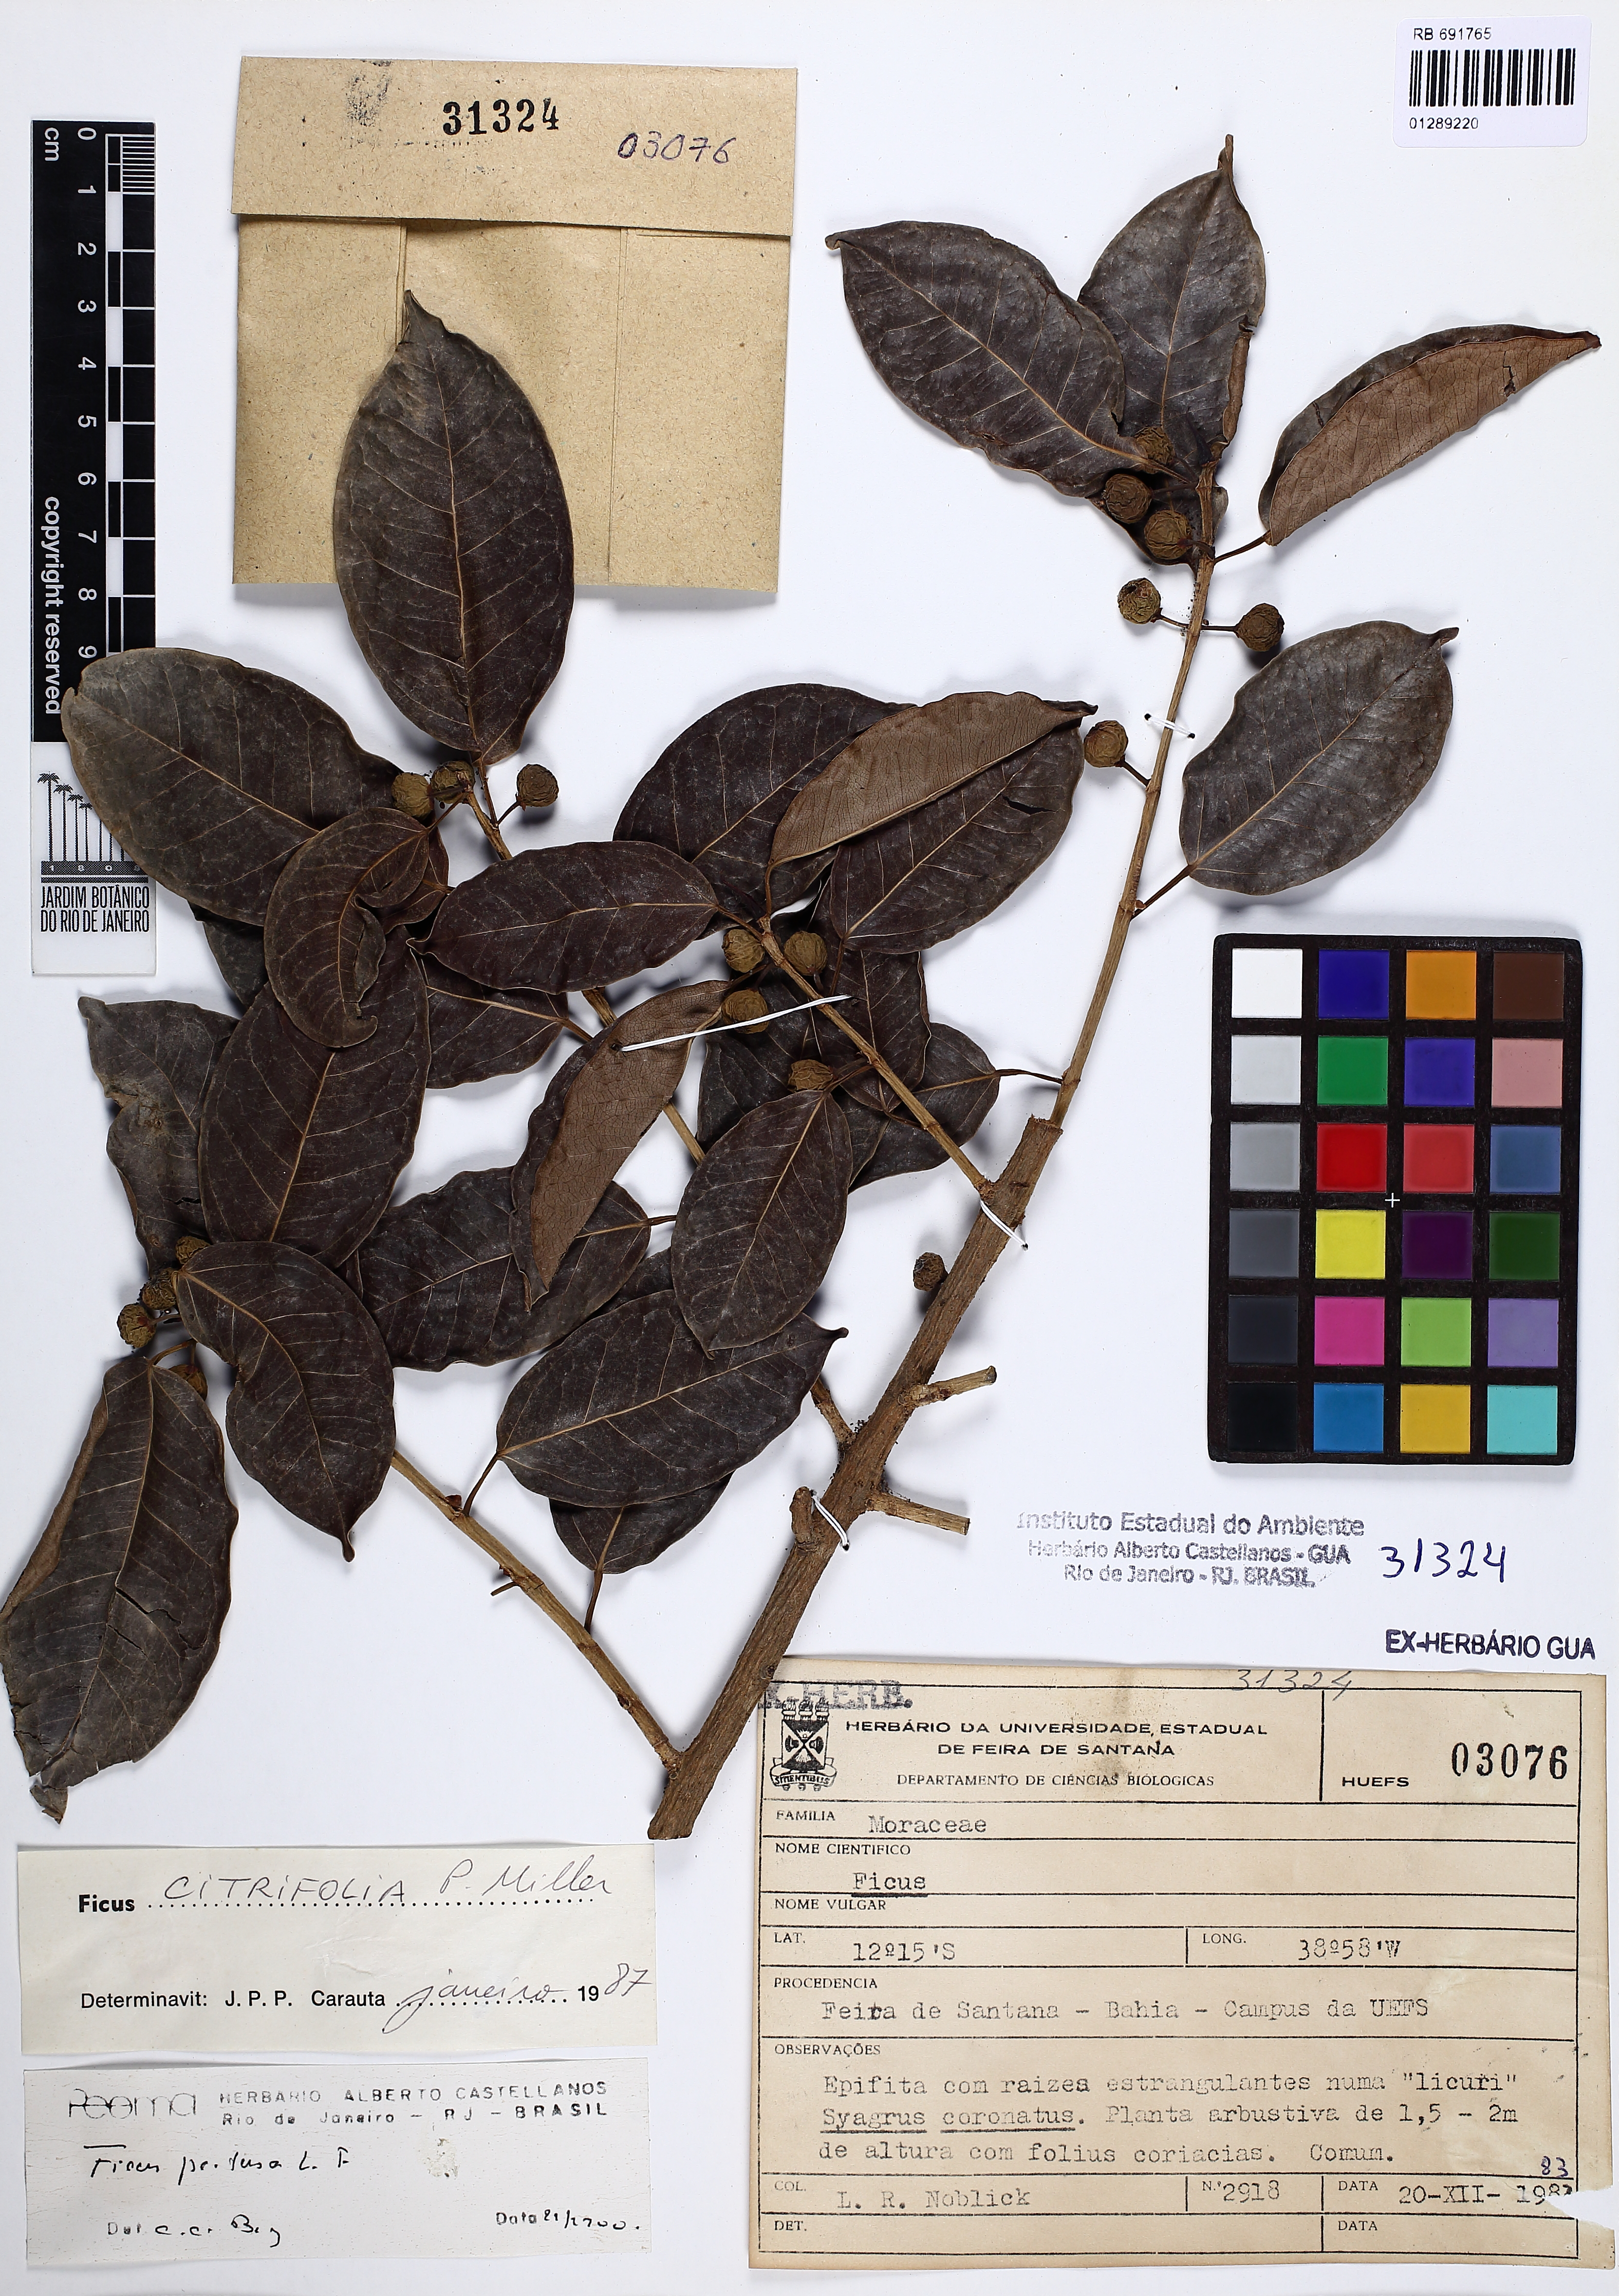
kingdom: Plantae
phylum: Tracheophyta
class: Magnoliopsida
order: Rosales
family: Moraceae
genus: Ficus
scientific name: Ficus pertusa
